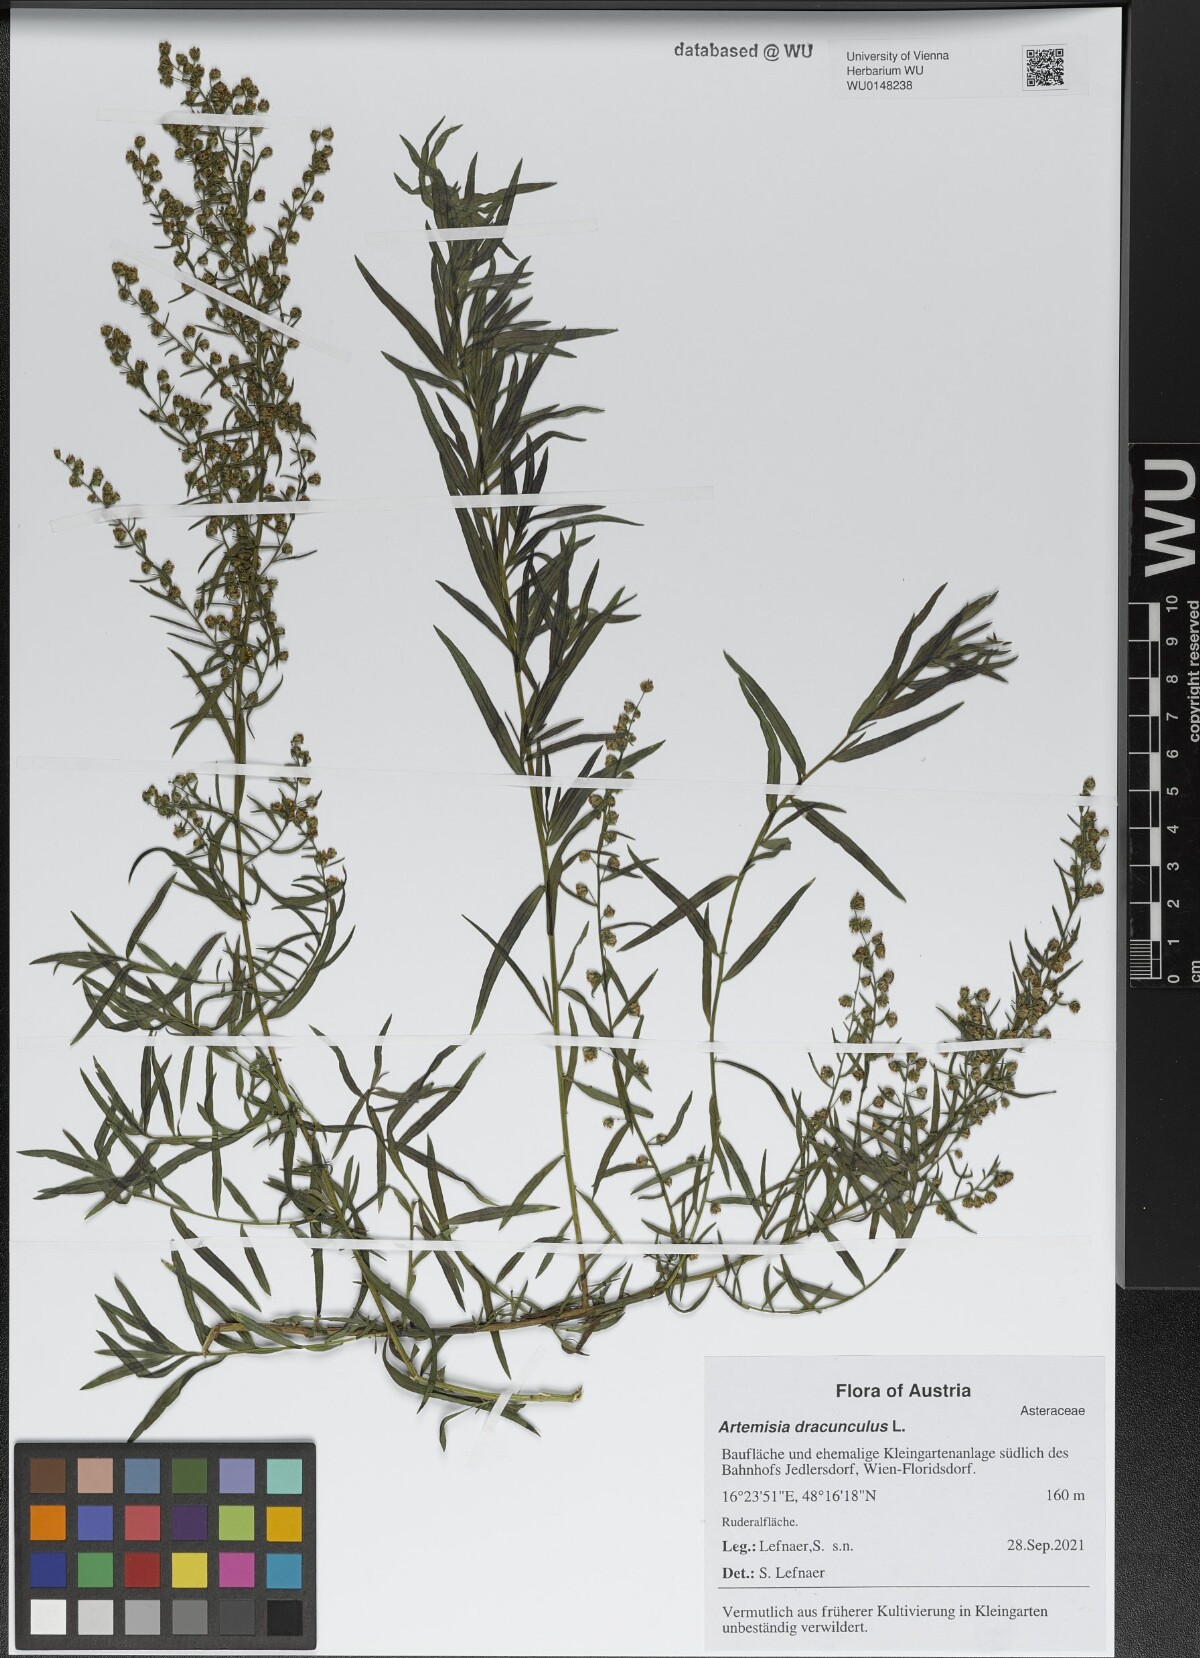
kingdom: Plantae
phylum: Tracheophyta
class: Magnoliopsida
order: Asterales
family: Asteraceae
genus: Artemisia
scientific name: Artemisia dracunculus
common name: Tarragon
